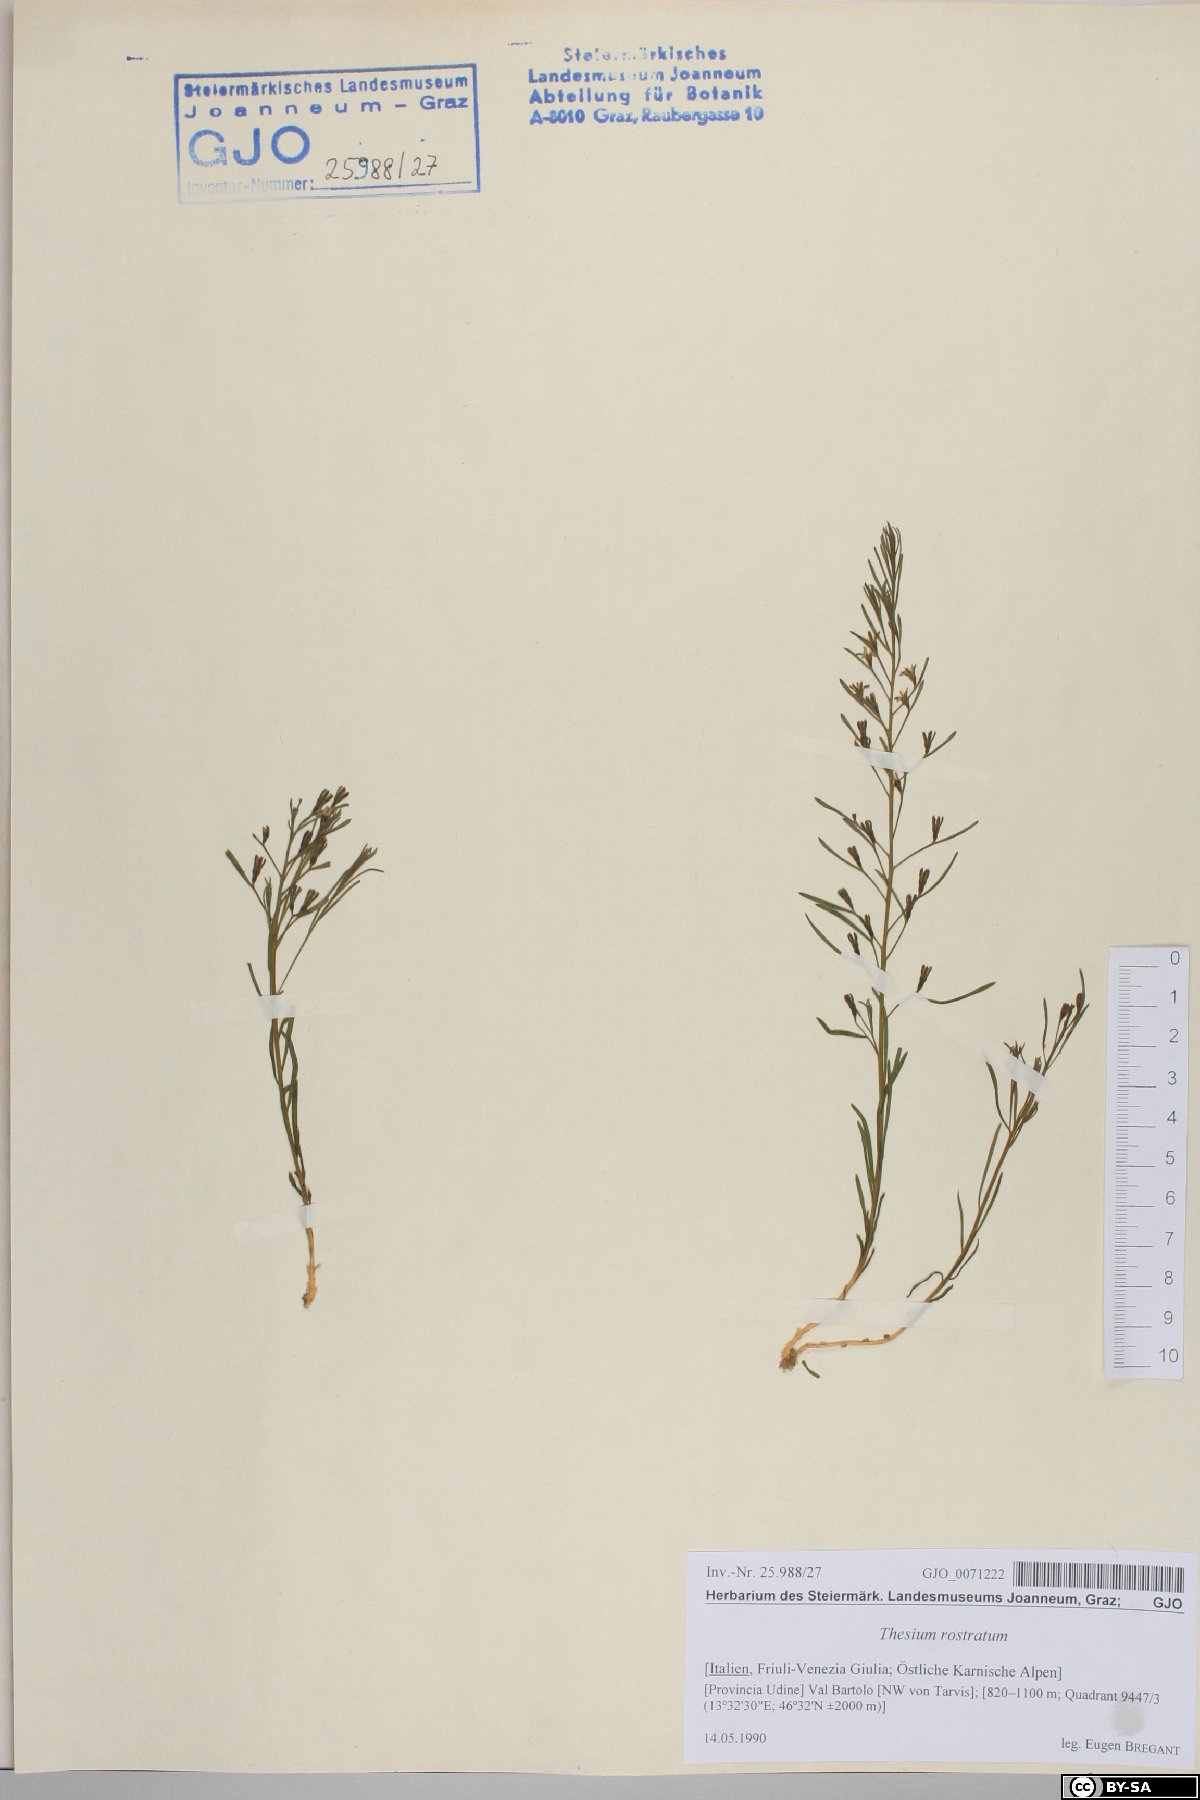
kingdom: Plantae
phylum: Tracheophyta
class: Magnoliopsida
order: Santalales
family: Thesiaceae
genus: Thesium
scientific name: Thesium rostratum
